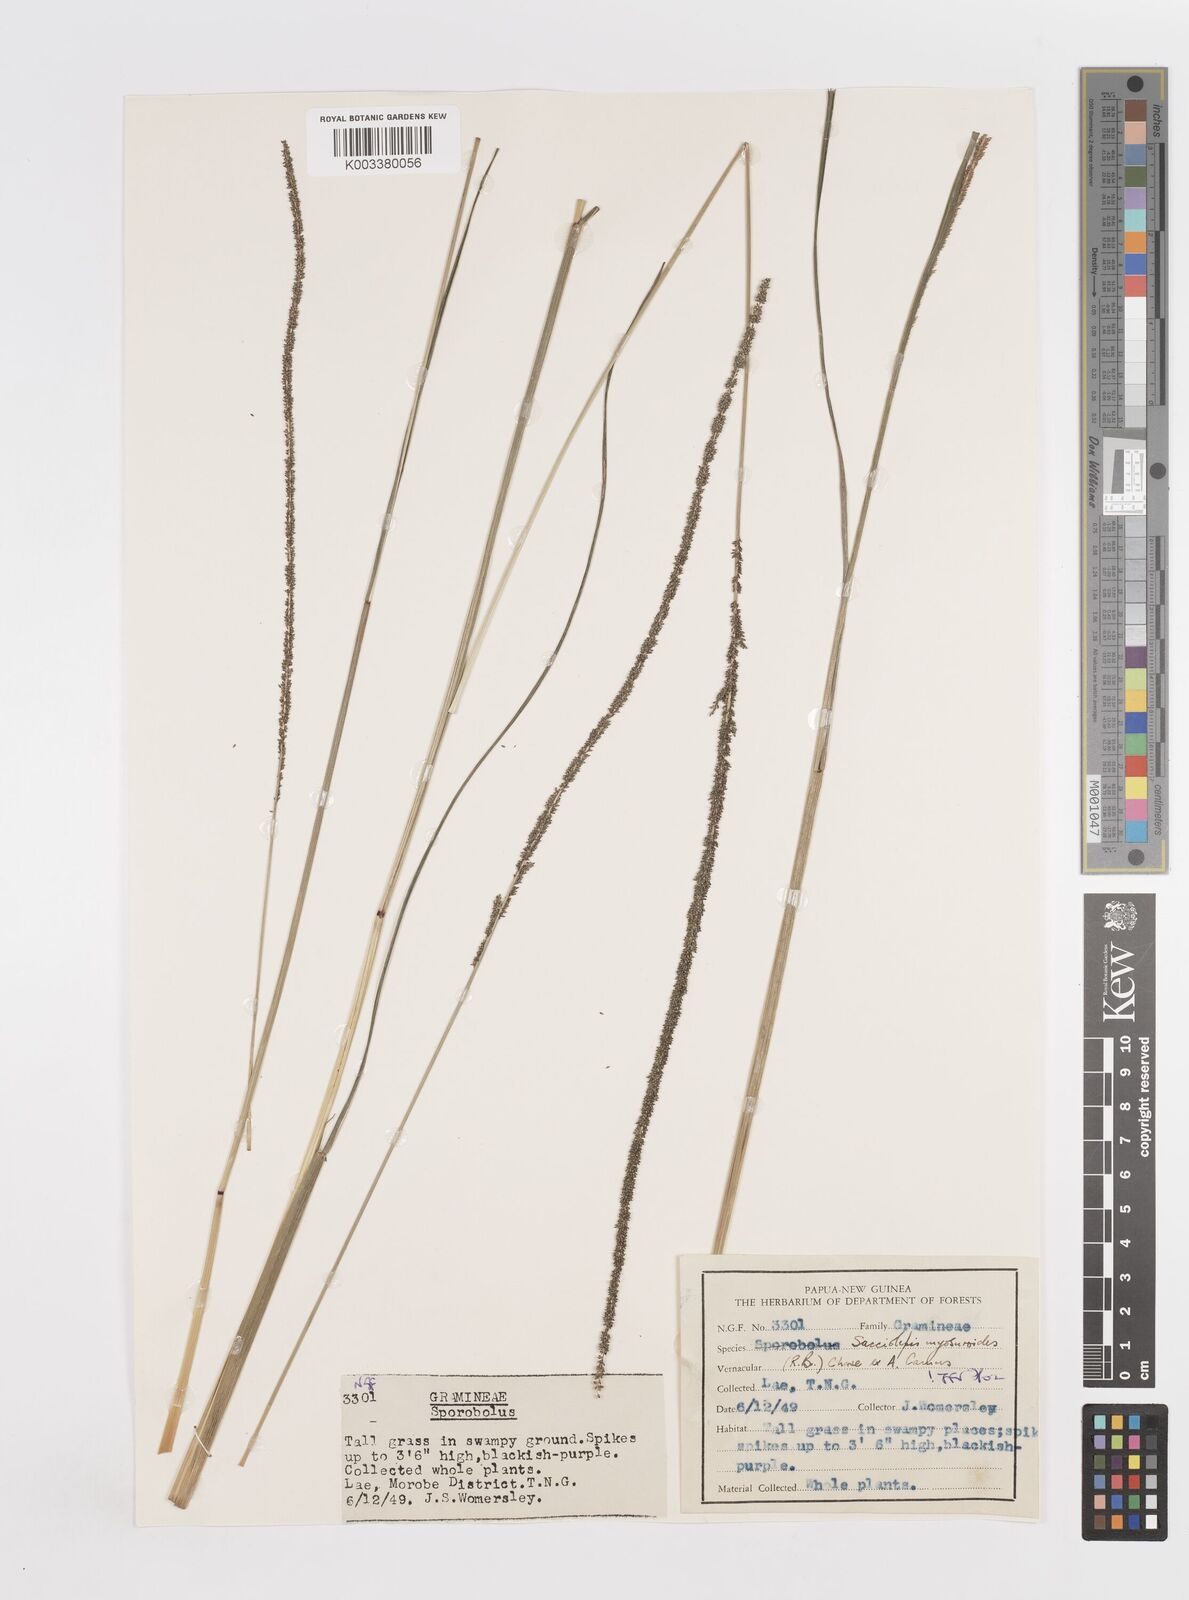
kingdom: Plantae
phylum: Tracheophyta
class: Liliopsida
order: Poales
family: Poaceae
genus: Sacciolepis
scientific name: Sacciolepis myosuroides
